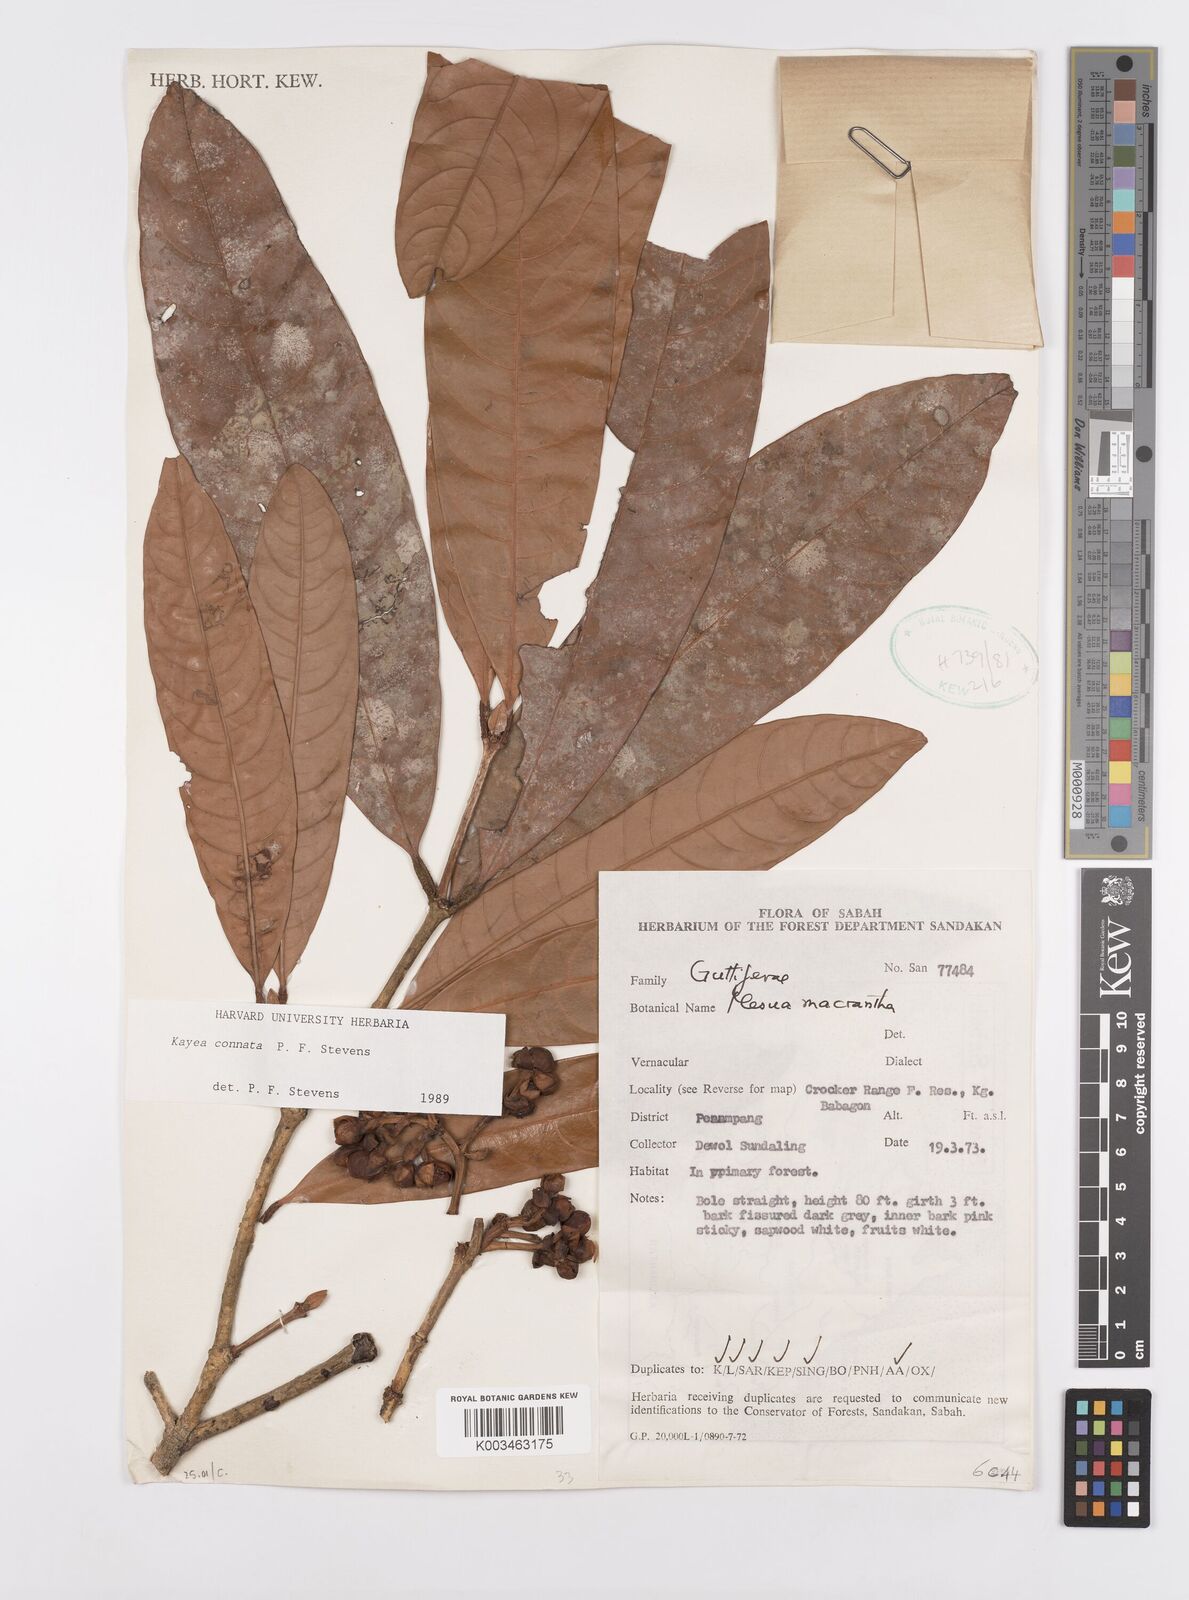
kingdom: Plantae
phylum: Tracheophyta
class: Magnoliopsida
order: Malpighiales
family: Calophyllaceae
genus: Kayea
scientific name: Kayea
